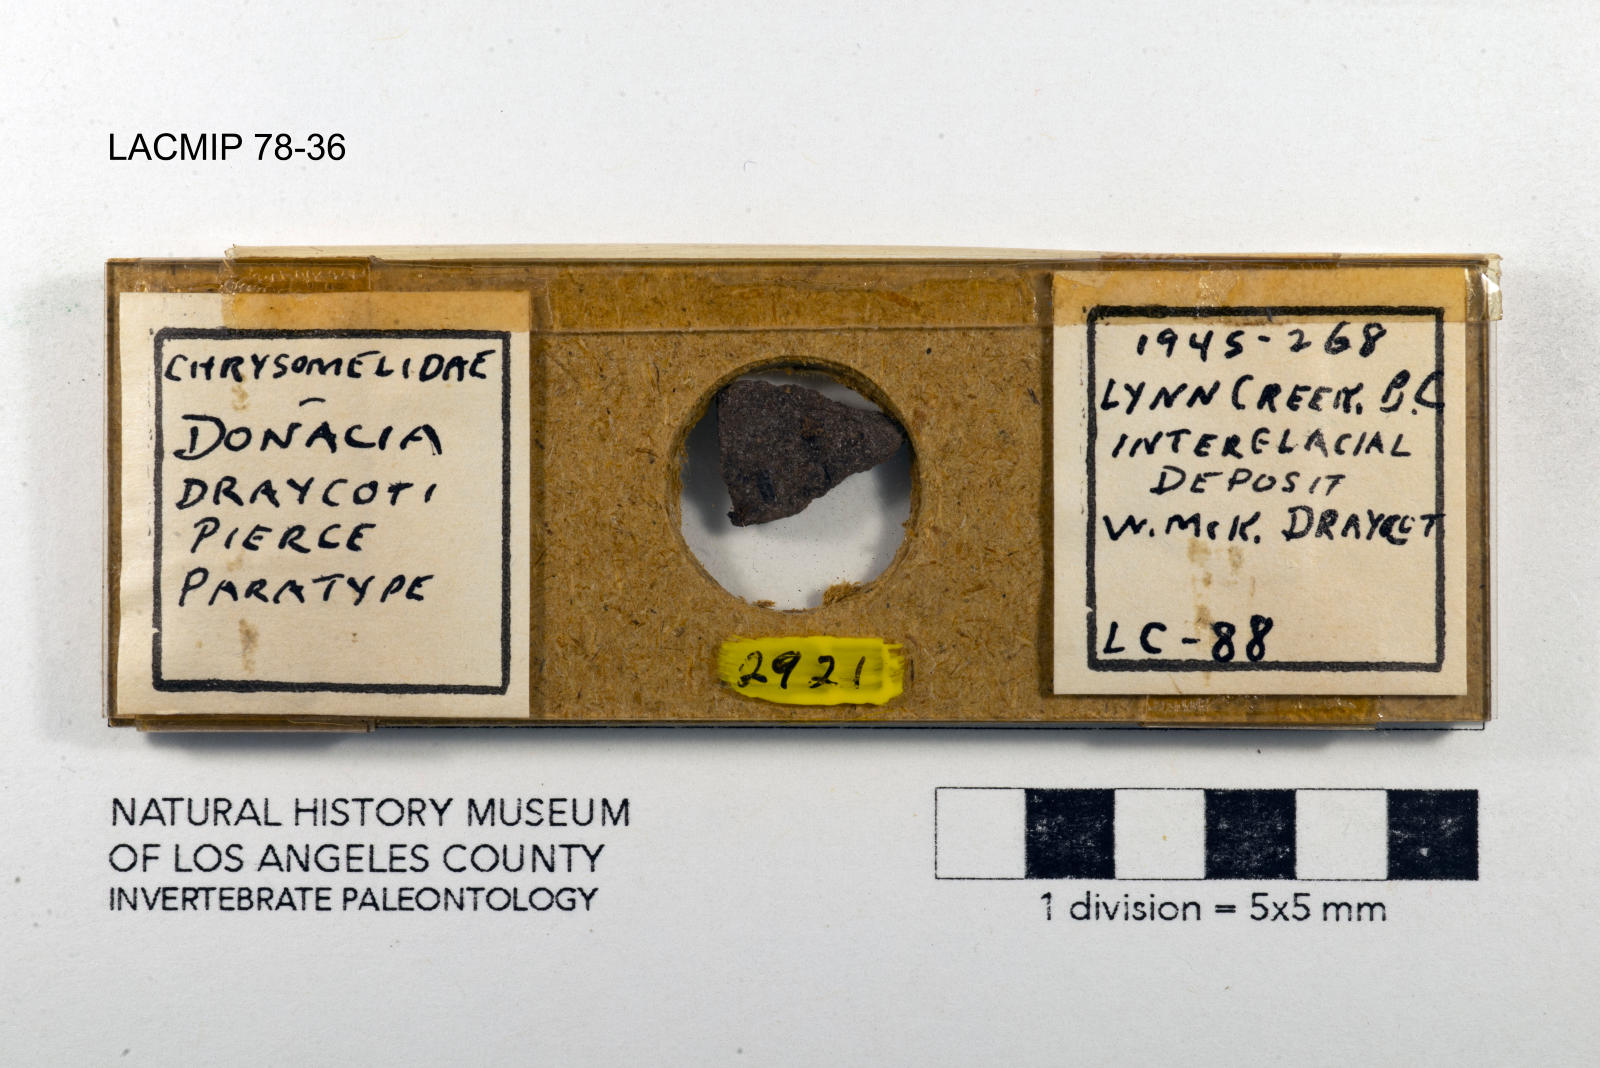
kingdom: Animalia
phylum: Arthropoda
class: Insecta
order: Coleoptera
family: Chrysomelidae
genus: Donacia
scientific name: Donacia draycoti
